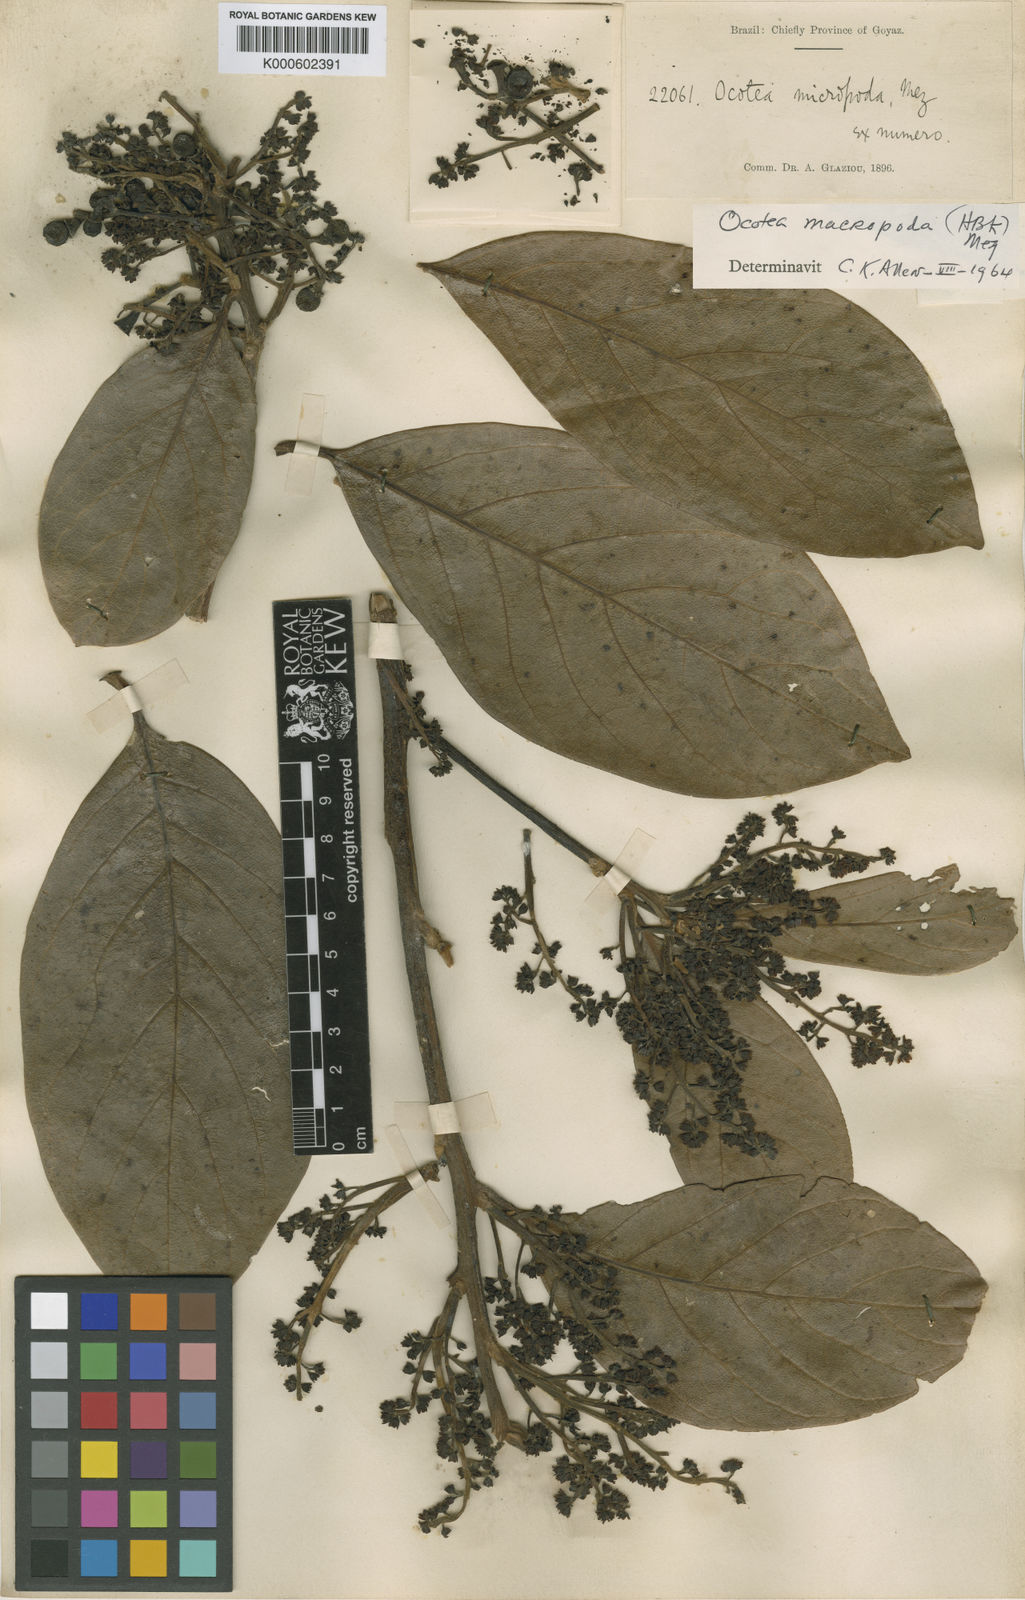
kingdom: Plantae
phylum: Tracheophyta
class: Magnoliopsida
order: Laurales
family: Lauraceae
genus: Ocotea
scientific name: Ocotea macropoda
